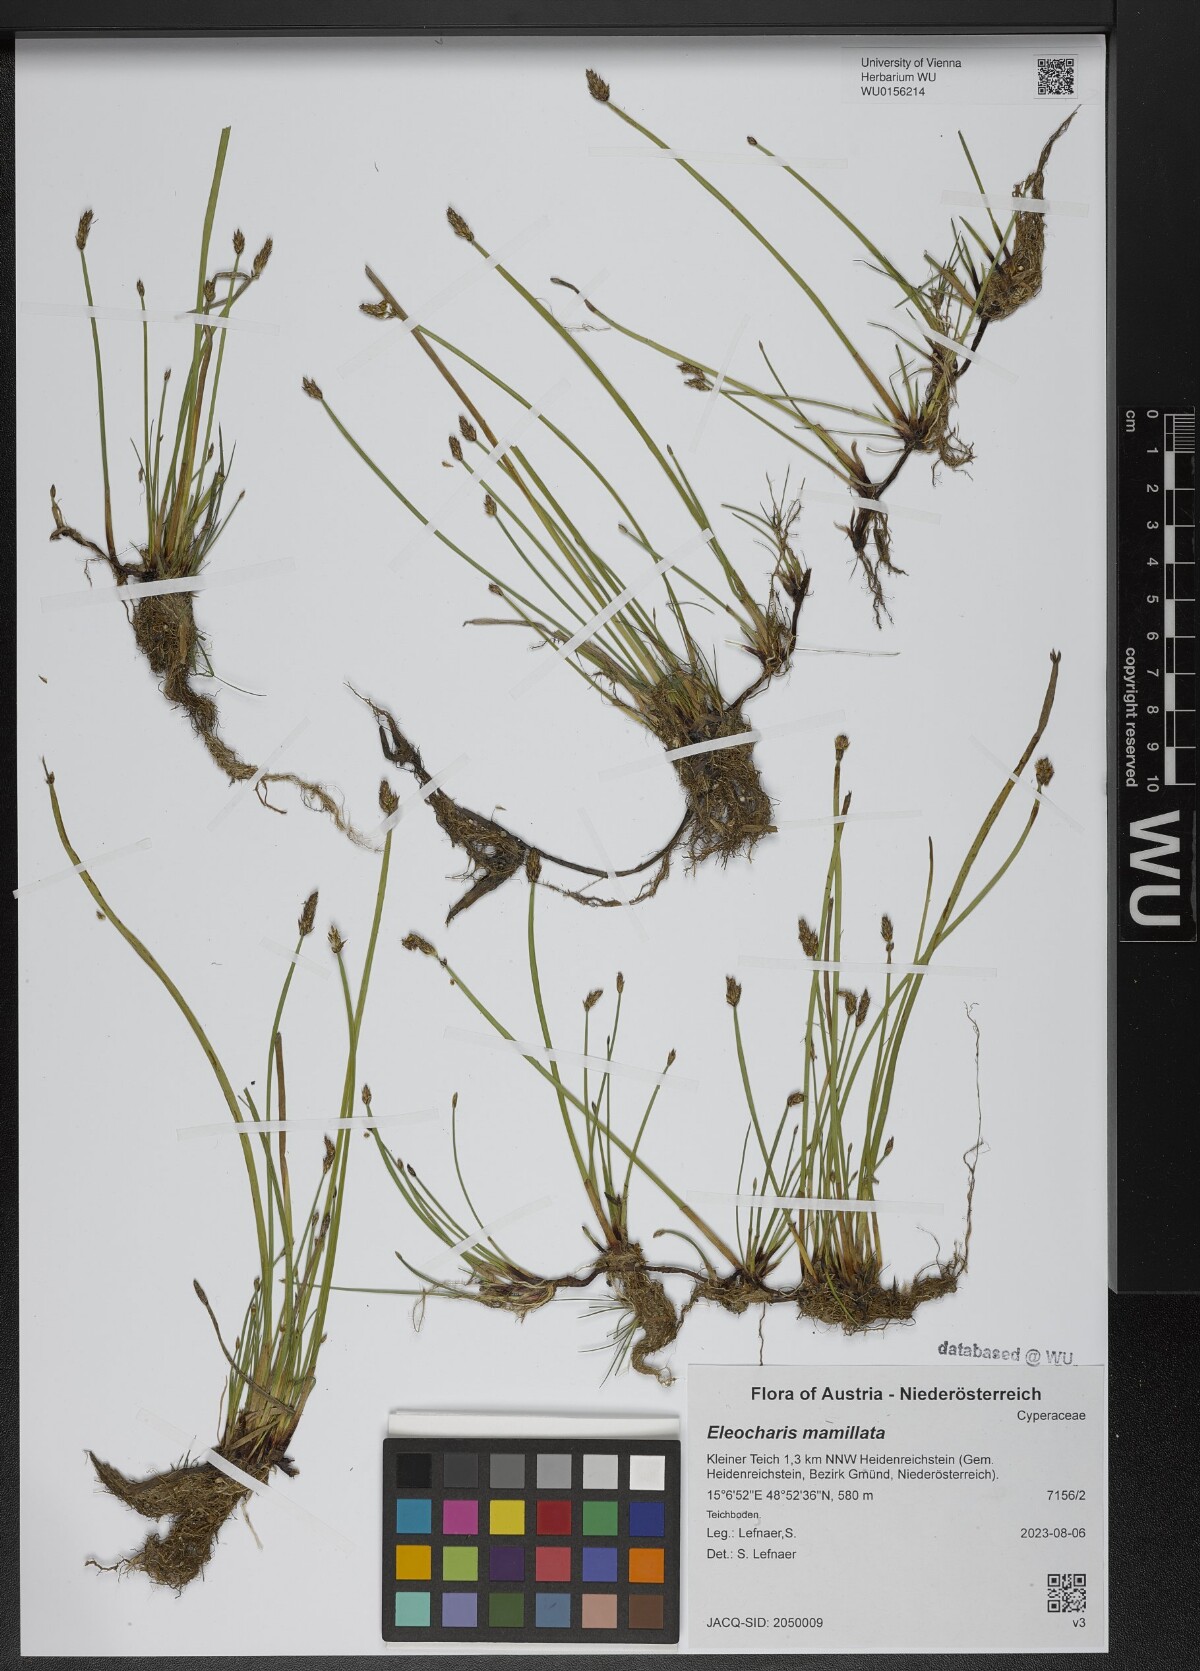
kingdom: Plantae
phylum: Tracheophyta
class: Liliopsida
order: Poales
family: Cyperaceae
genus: Eleocharis
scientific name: Eleocharis mamillata
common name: Northern spike-rush
